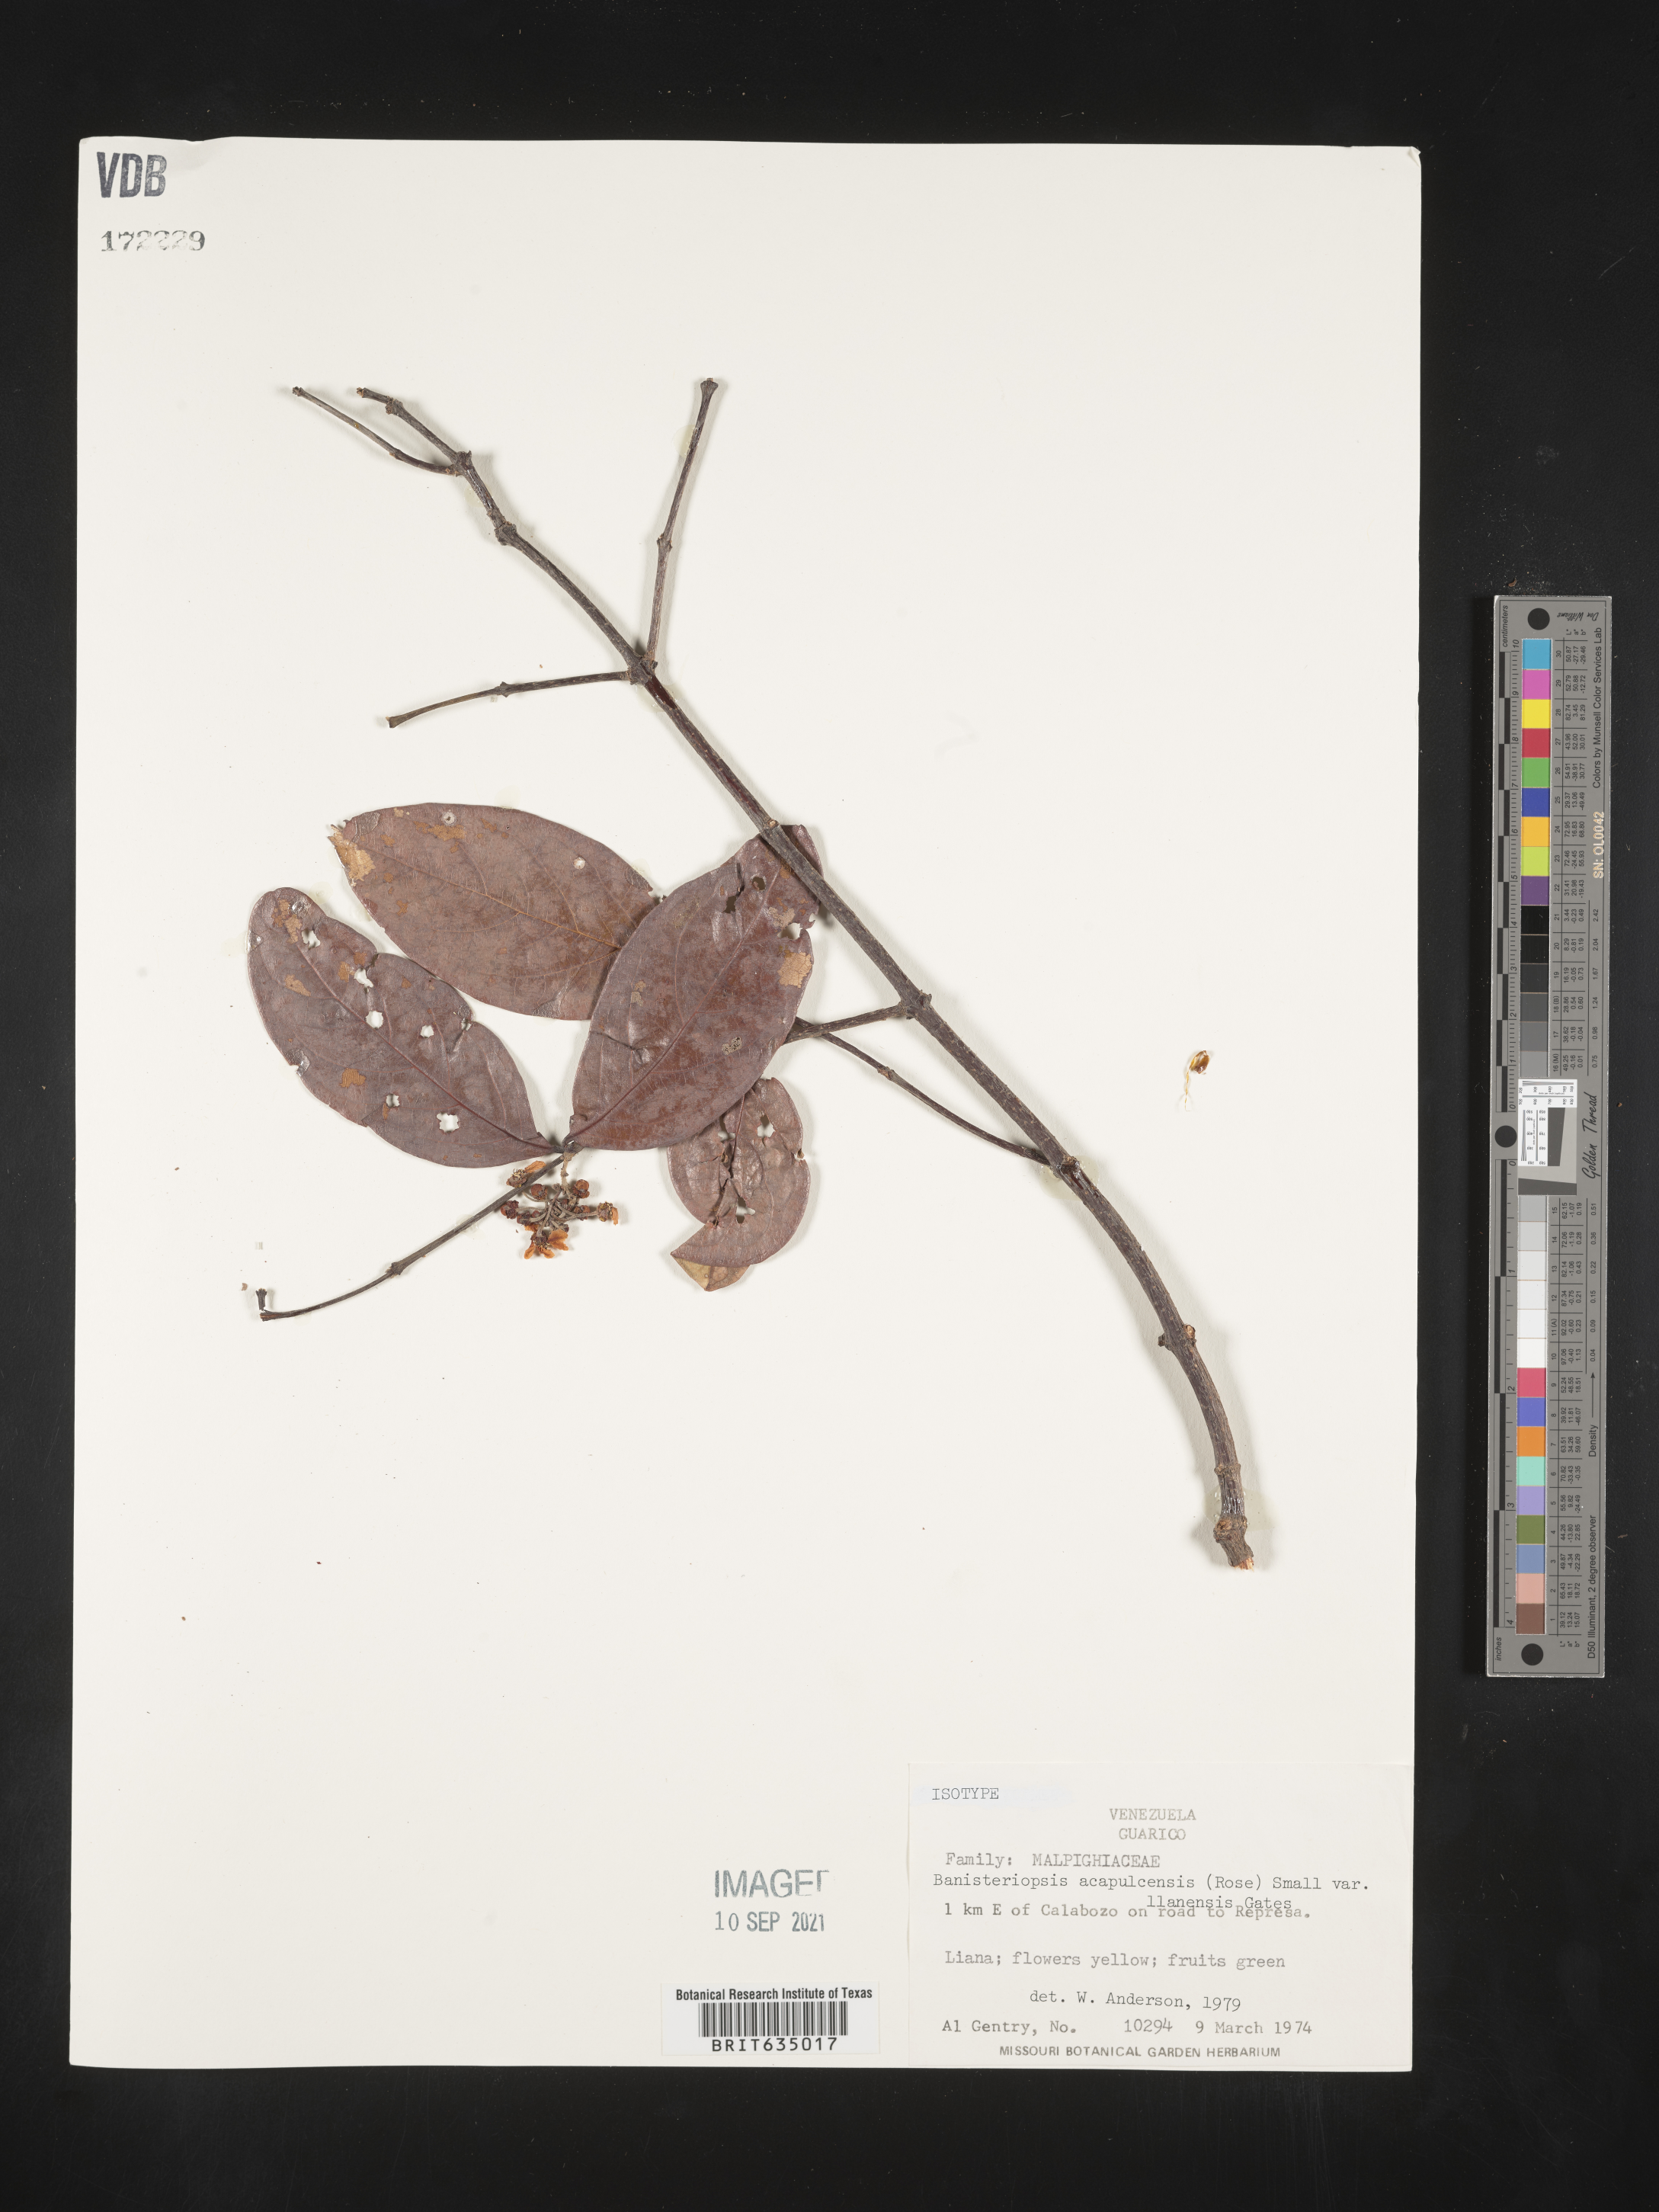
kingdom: Plantae
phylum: Tracheophyta
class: Magnoliopsida
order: Malpighiales
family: Malpighiaceae
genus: Banisteriopsis
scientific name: Banisteriopsis
